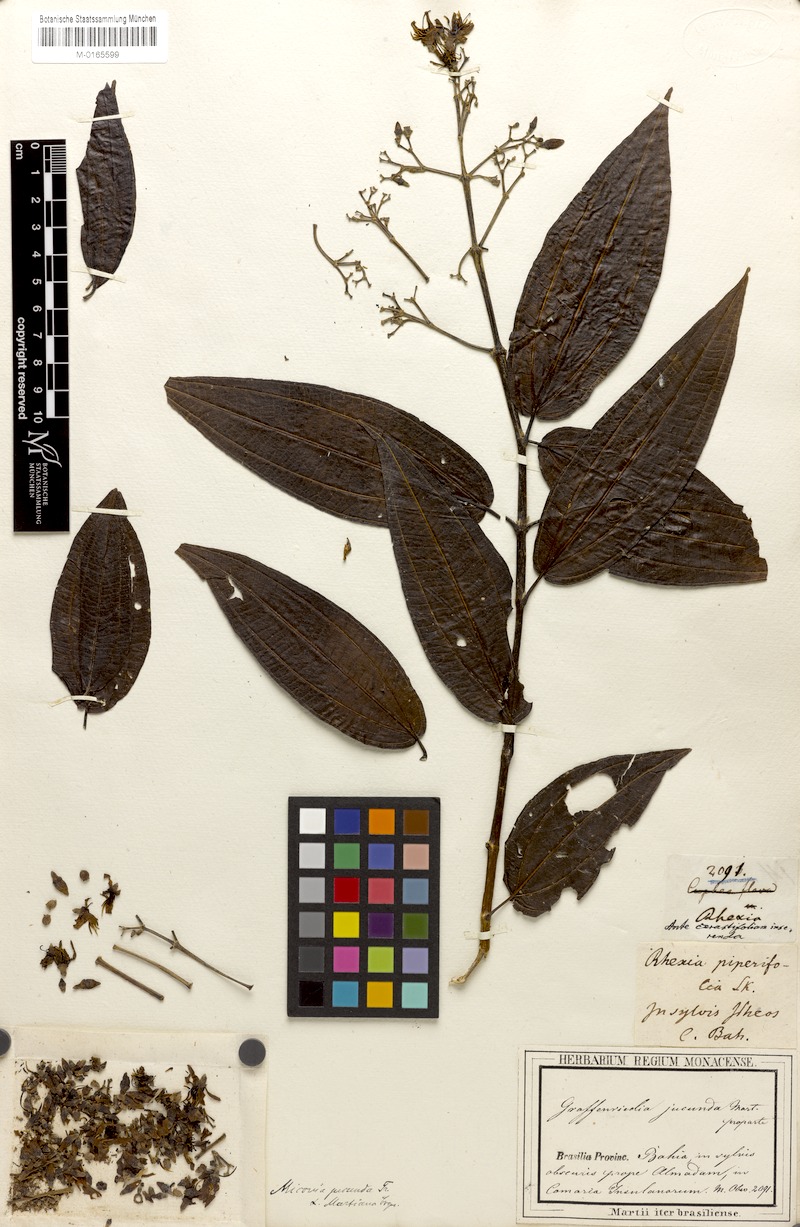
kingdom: Plantae
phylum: Tracheophyta
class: Magnoliopsida
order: Myrtales
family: Melastomataceae
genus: Miconia
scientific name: Miconia jucunda
